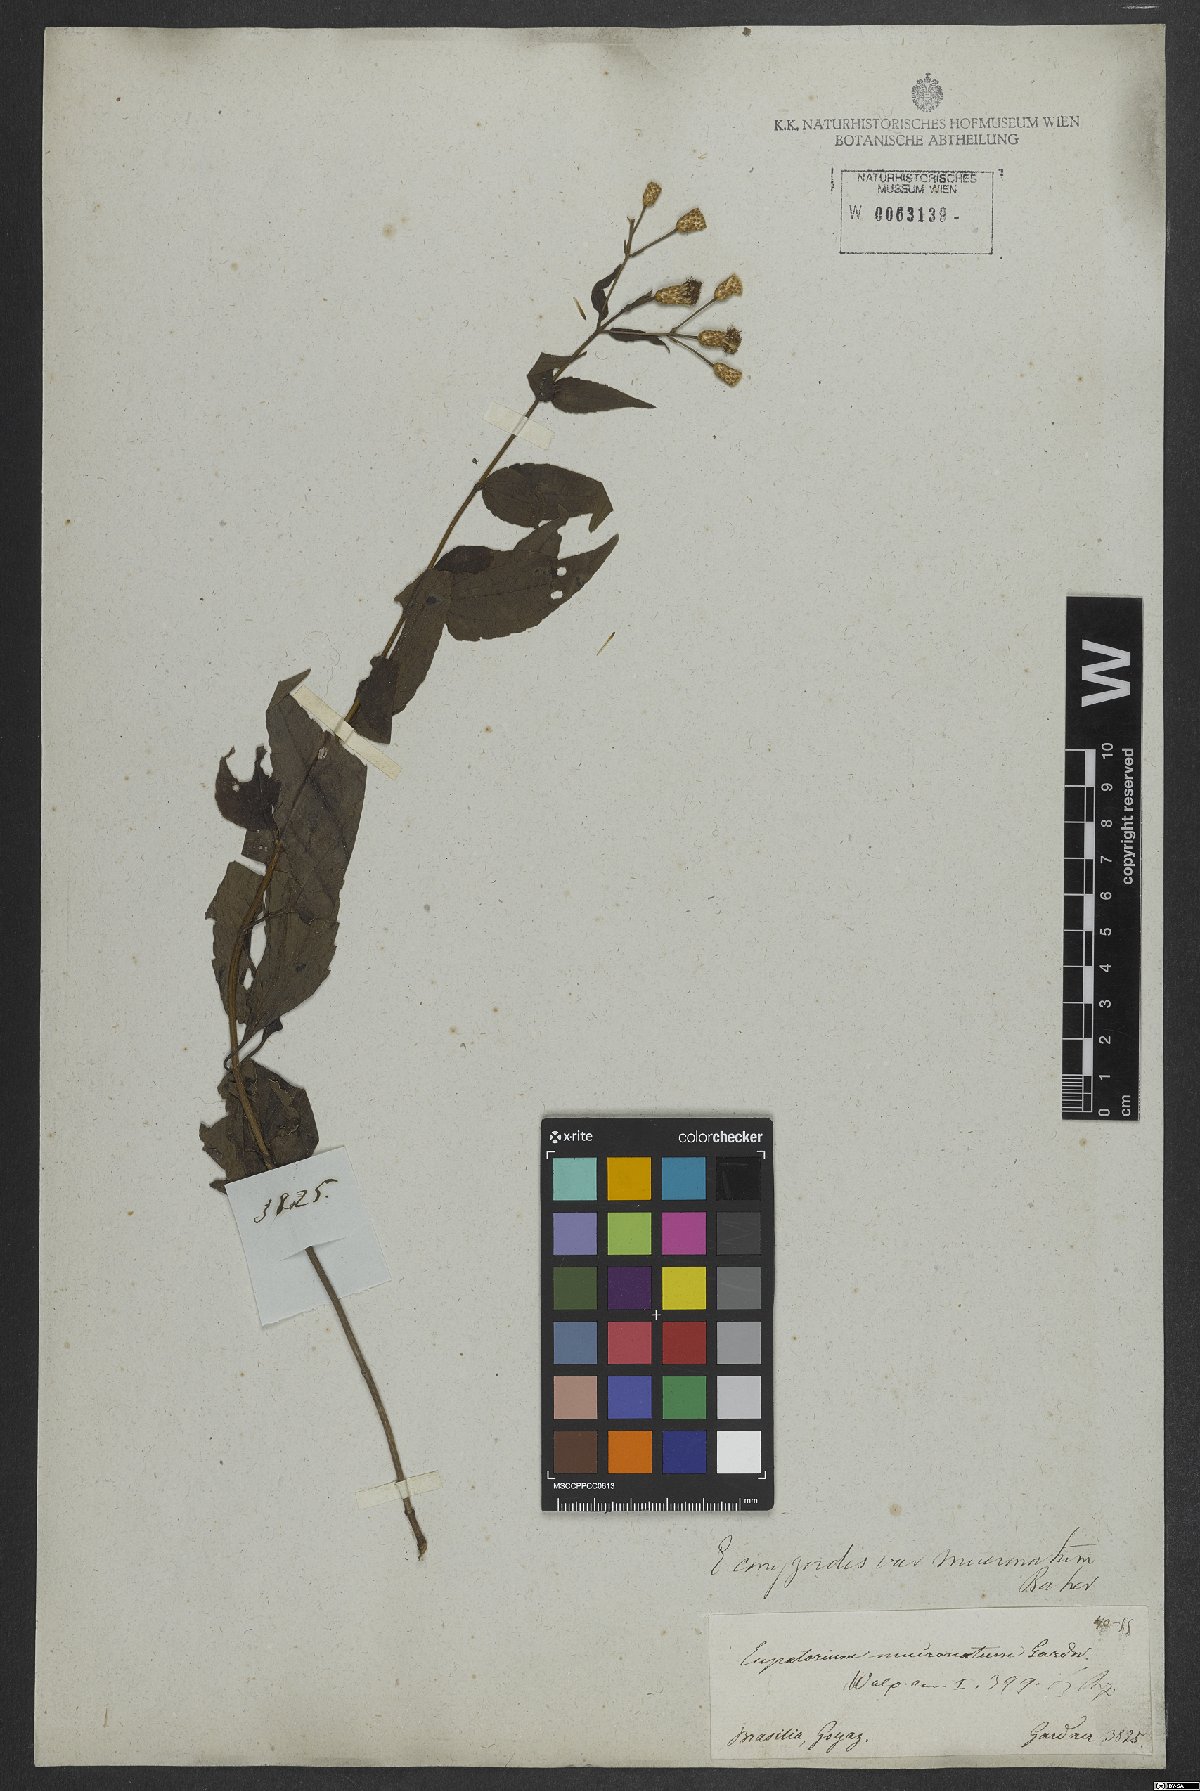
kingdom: Plantae
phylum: Tracheophyta
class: Magnoliopsida
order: Asterales
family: Asteraceae
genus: Chromolaena
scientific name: Chromolaena odorata
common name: Siamweed
